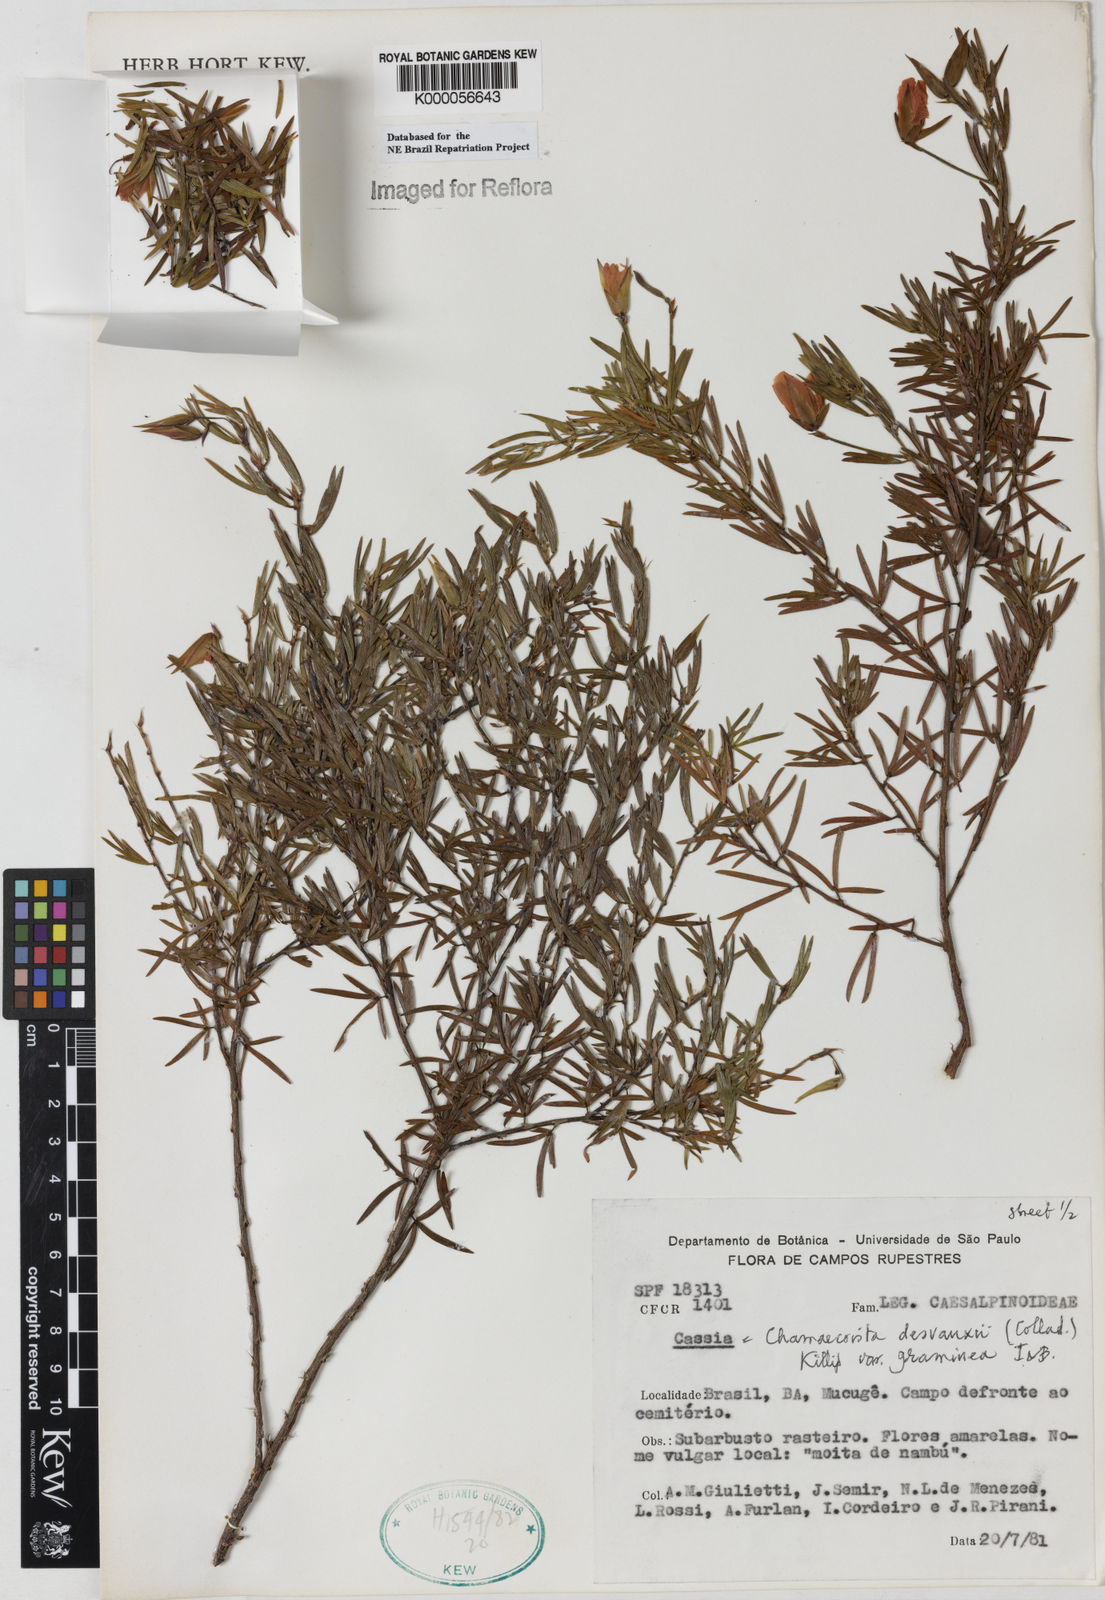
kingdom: Plantae
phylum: Tracheophyta
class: Magnoliopsida
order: Fabales
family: Fabaceae
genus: Chamaecrista
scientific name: Chamaecrista desvauxii
